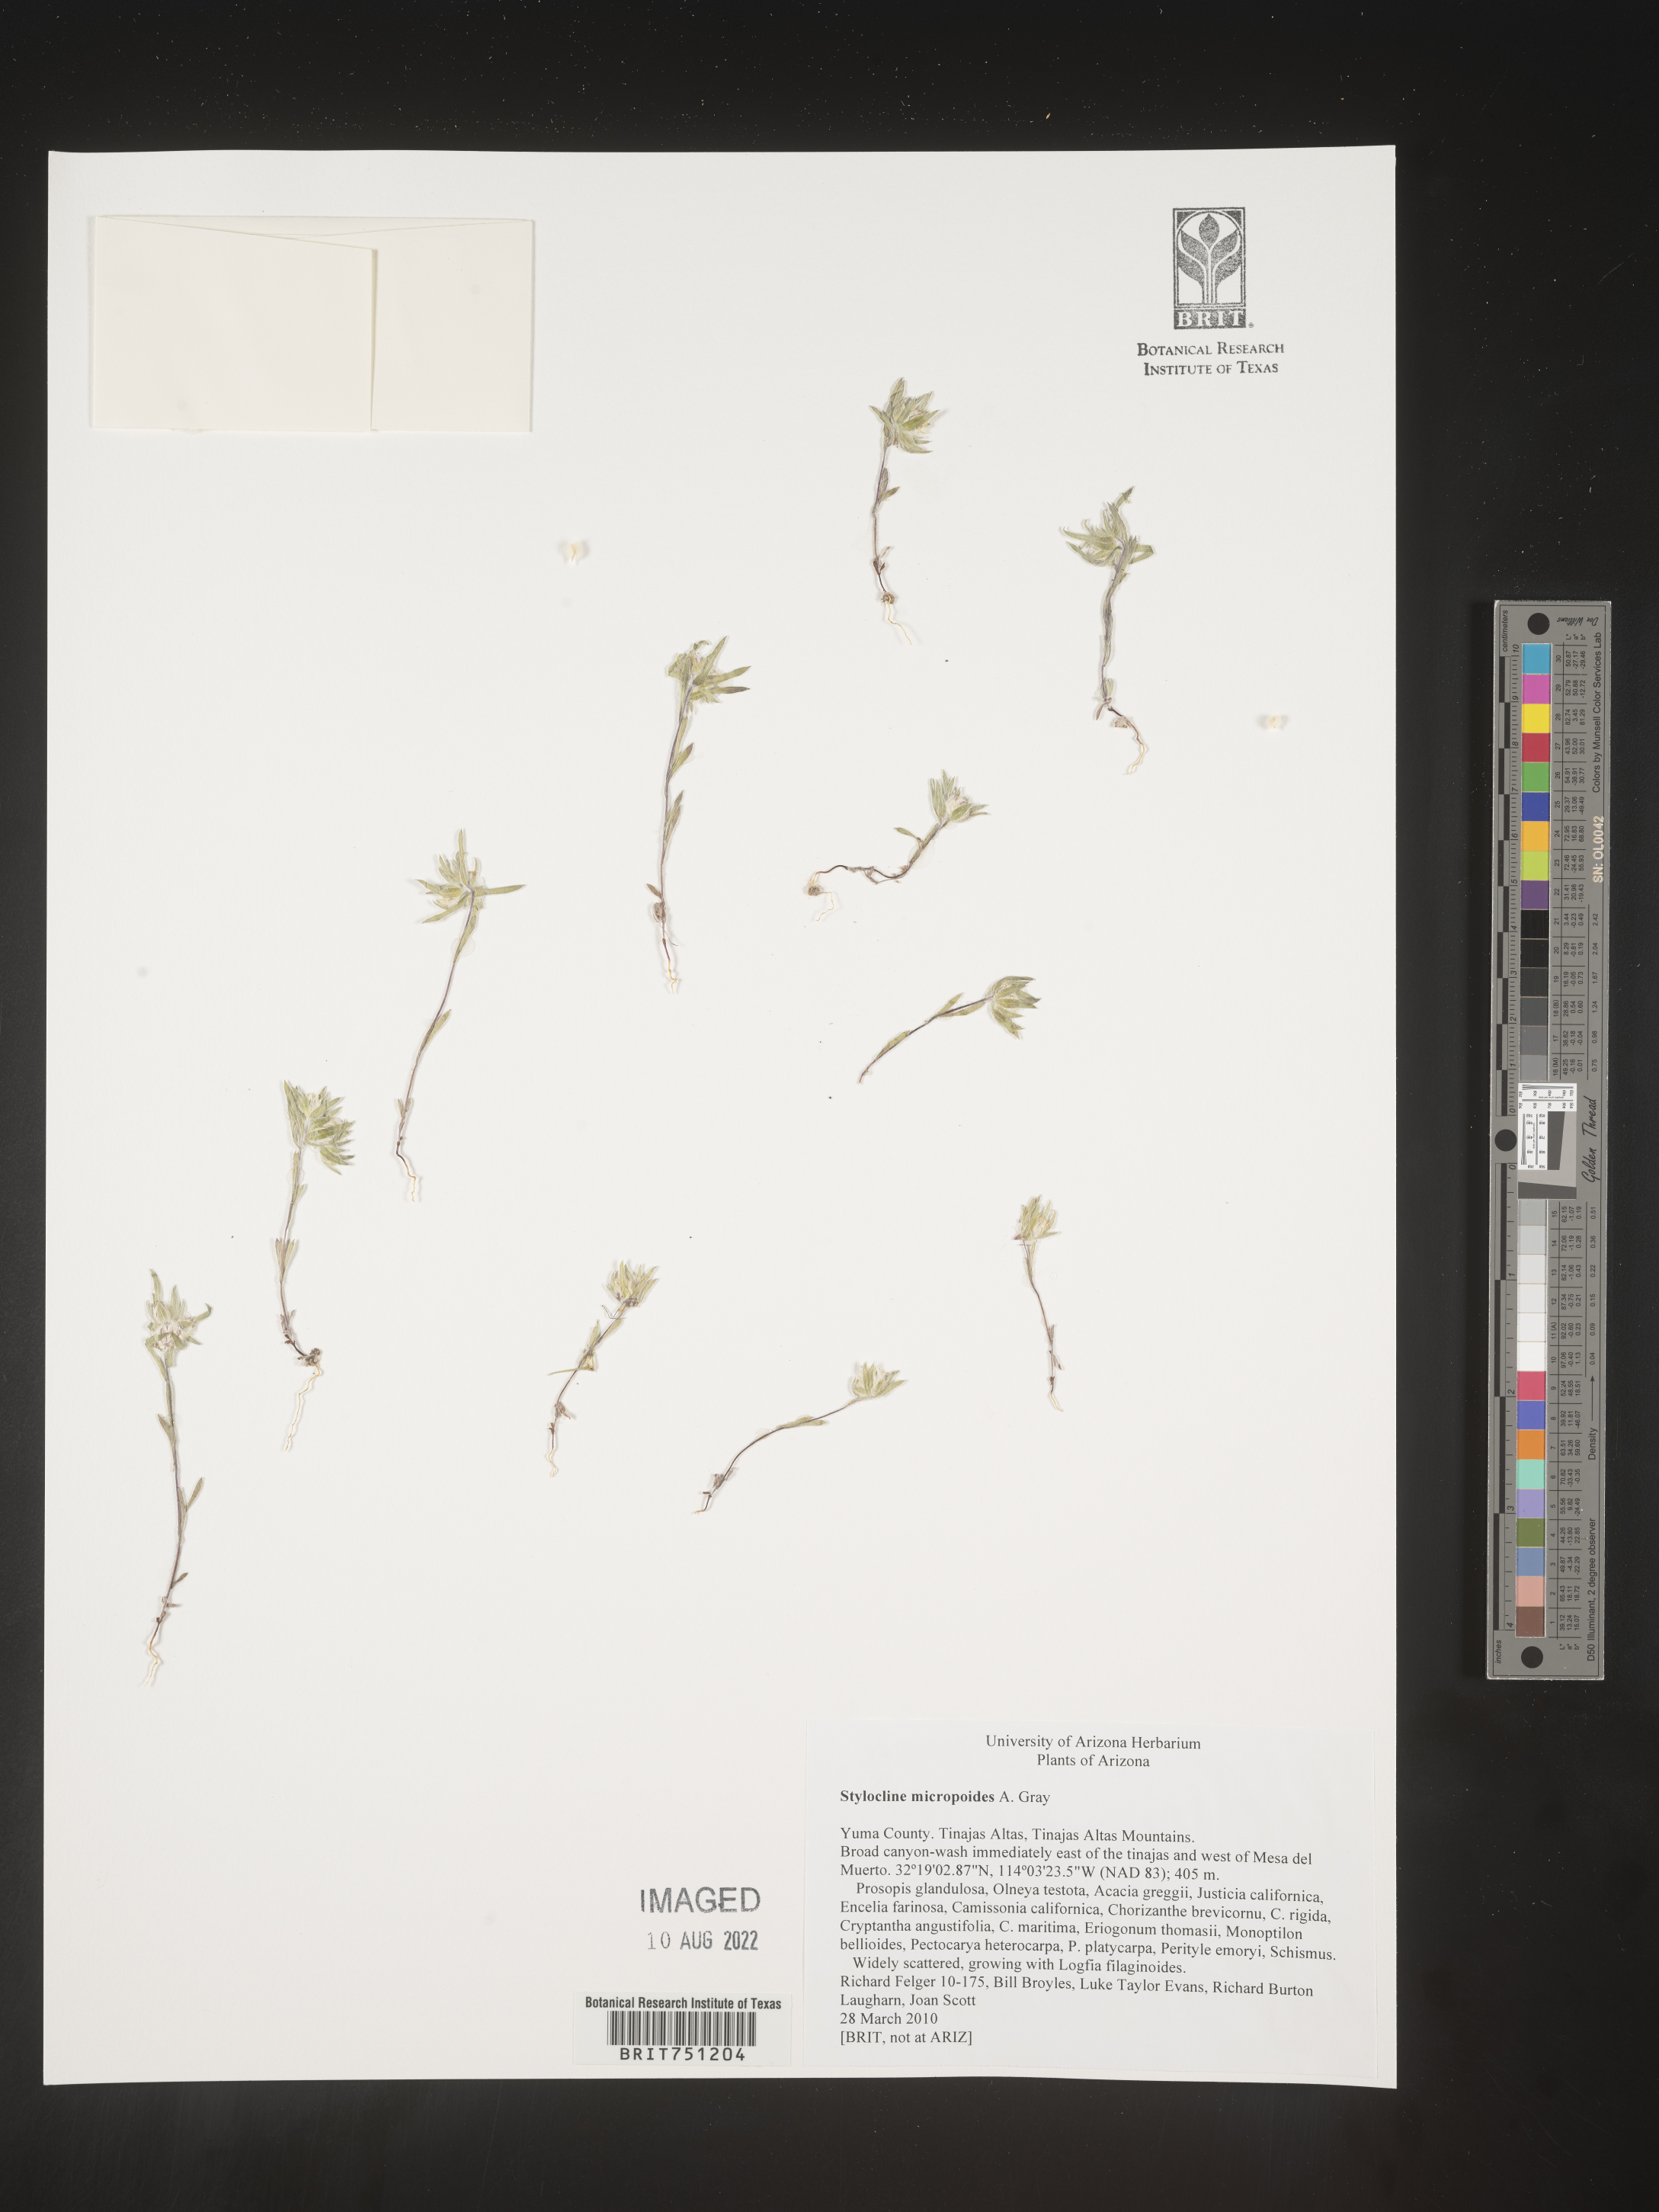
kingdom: Plantae
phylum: Tracheophyta
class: Magnoliopsida
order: Asterales
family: Asteraceae
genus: Stylocline
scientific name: Stylocline
